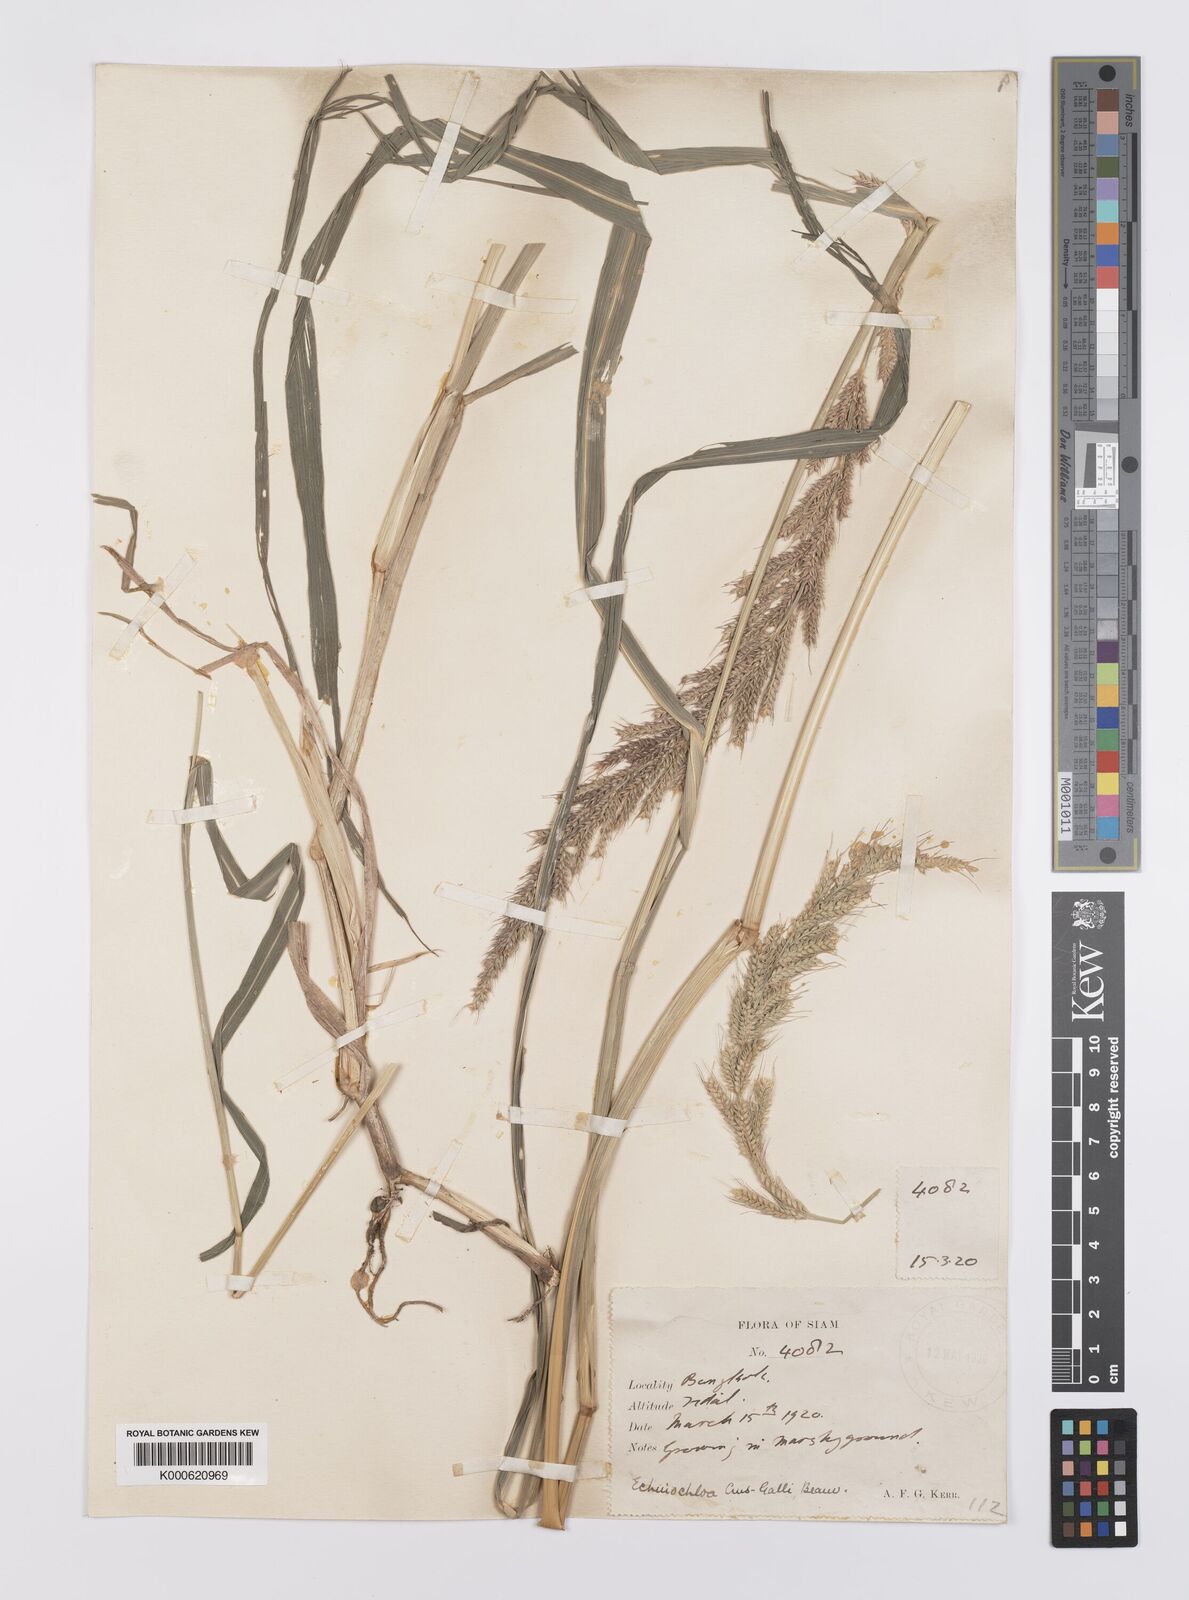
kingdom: Plantae
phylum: Tracheophyta
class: Liliopsida
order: Poales
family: Poaceae
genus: Echinochloa
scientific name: Echinochloa crus-galli
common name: Cockspur
